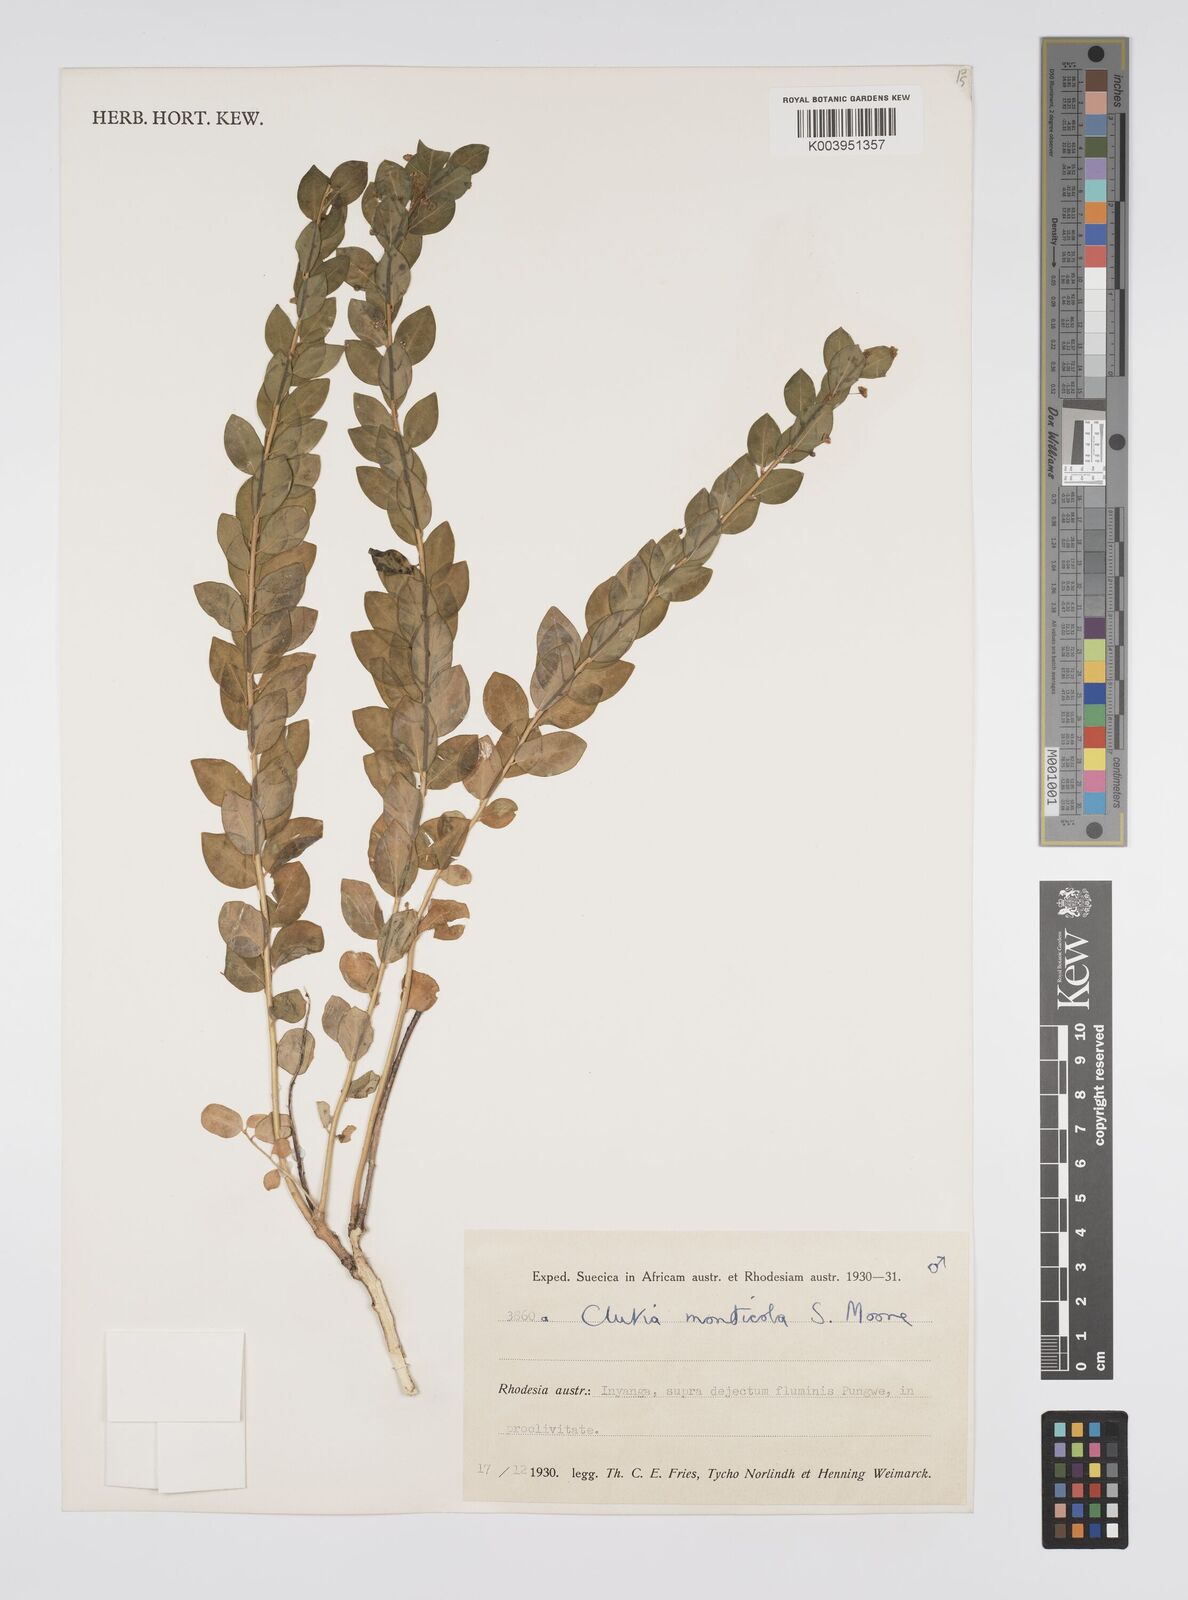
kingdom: Plantae
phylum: Tracheophyta
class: Magnoliopsida
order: Malpighiales
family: Peraceae
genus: Clutia
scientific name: Clutia monticola
